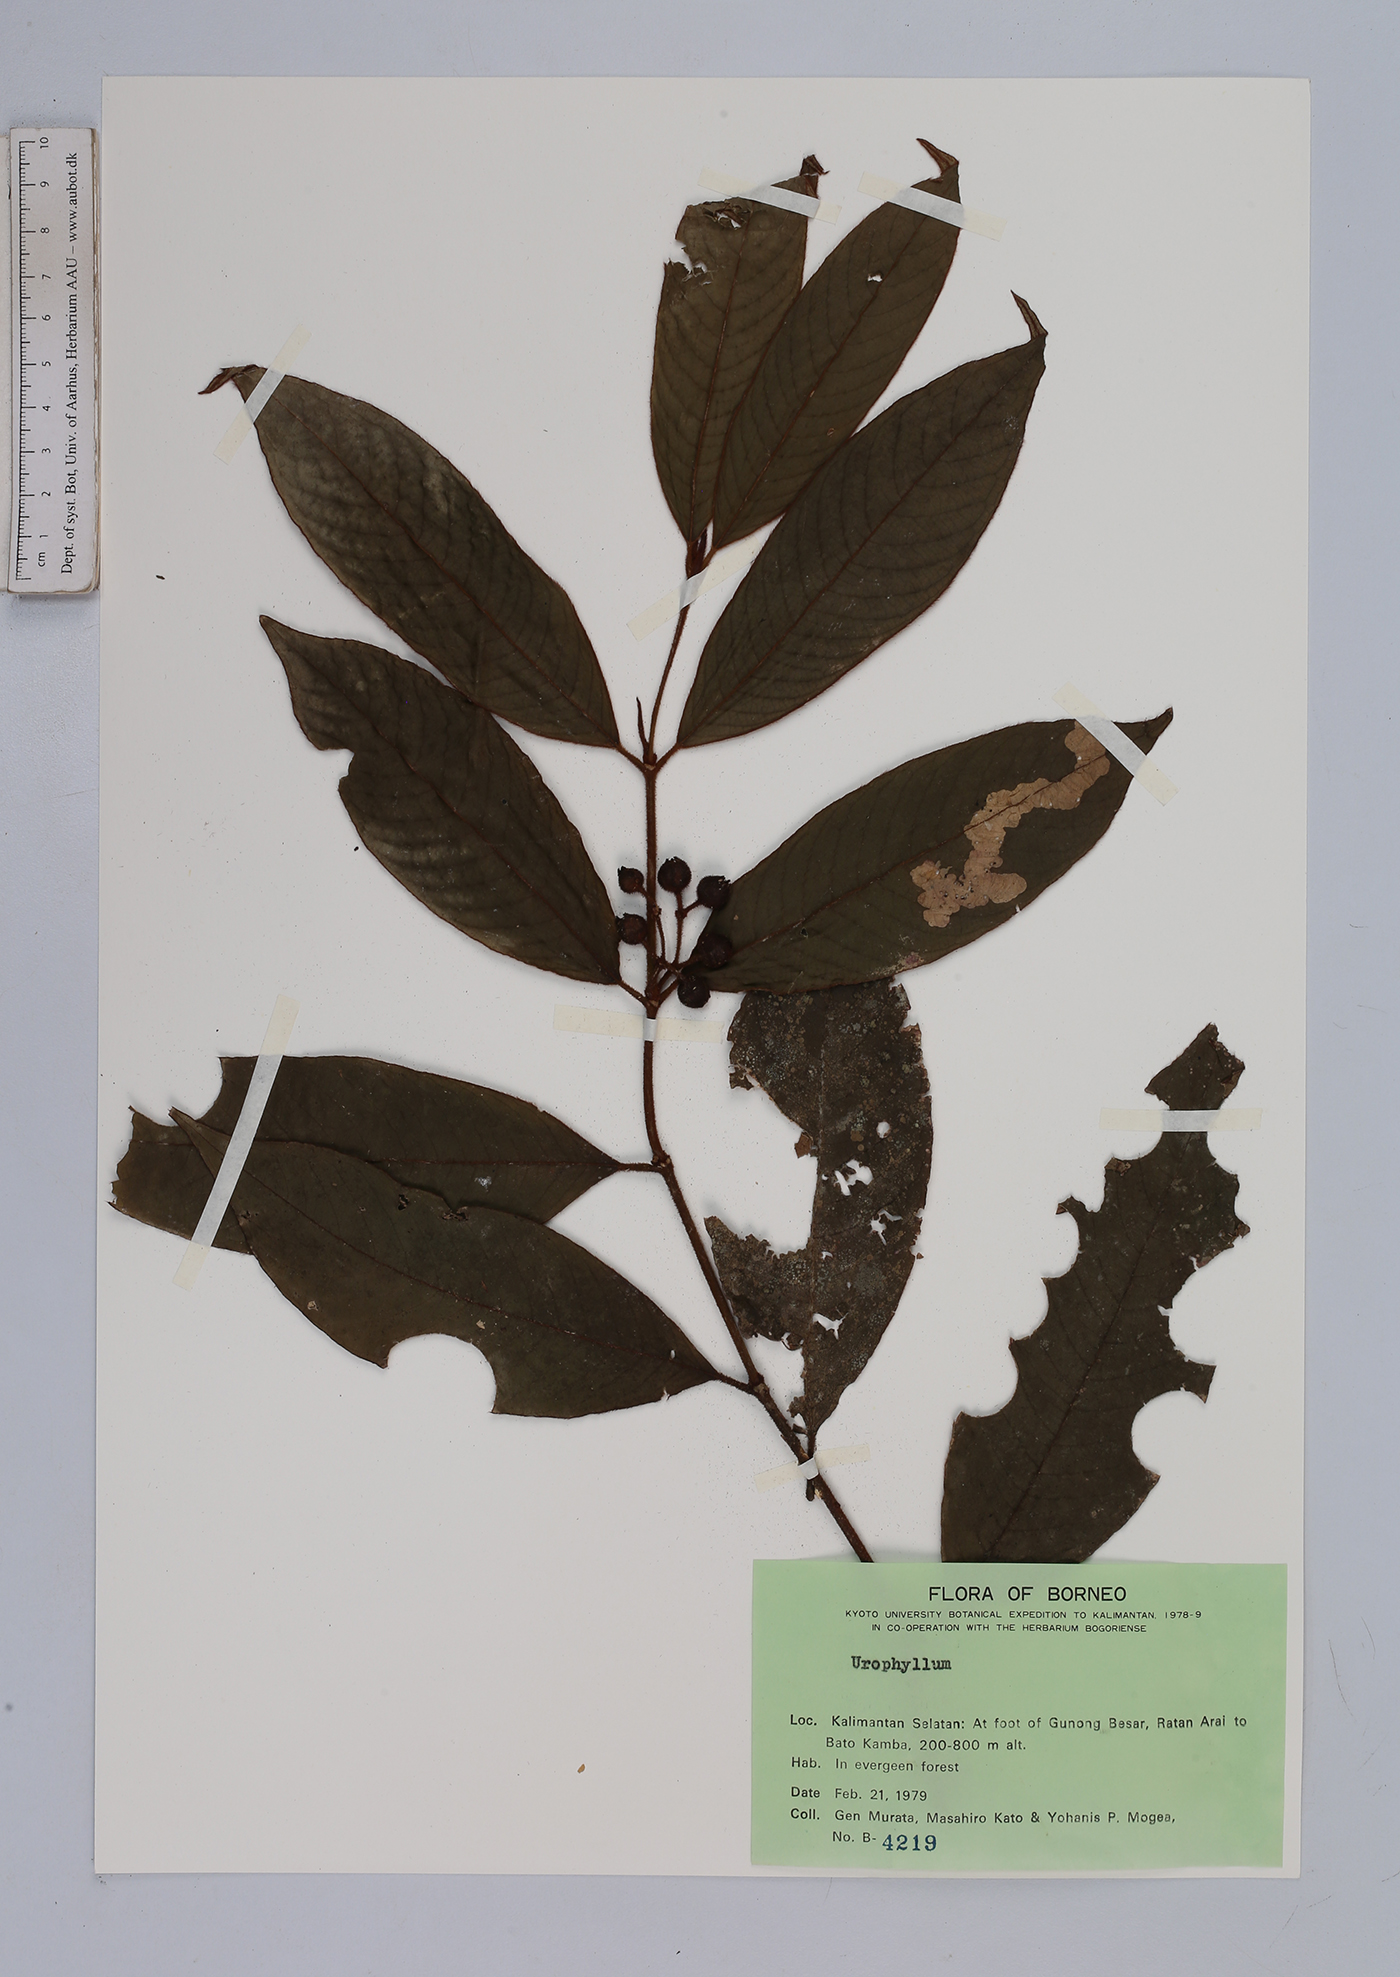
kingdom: Plantae
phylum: Tracheophyta
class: Magnoliopsida
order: Gentianales
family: Rubiaceae
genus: Urophyllum
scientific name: Urophyllum
